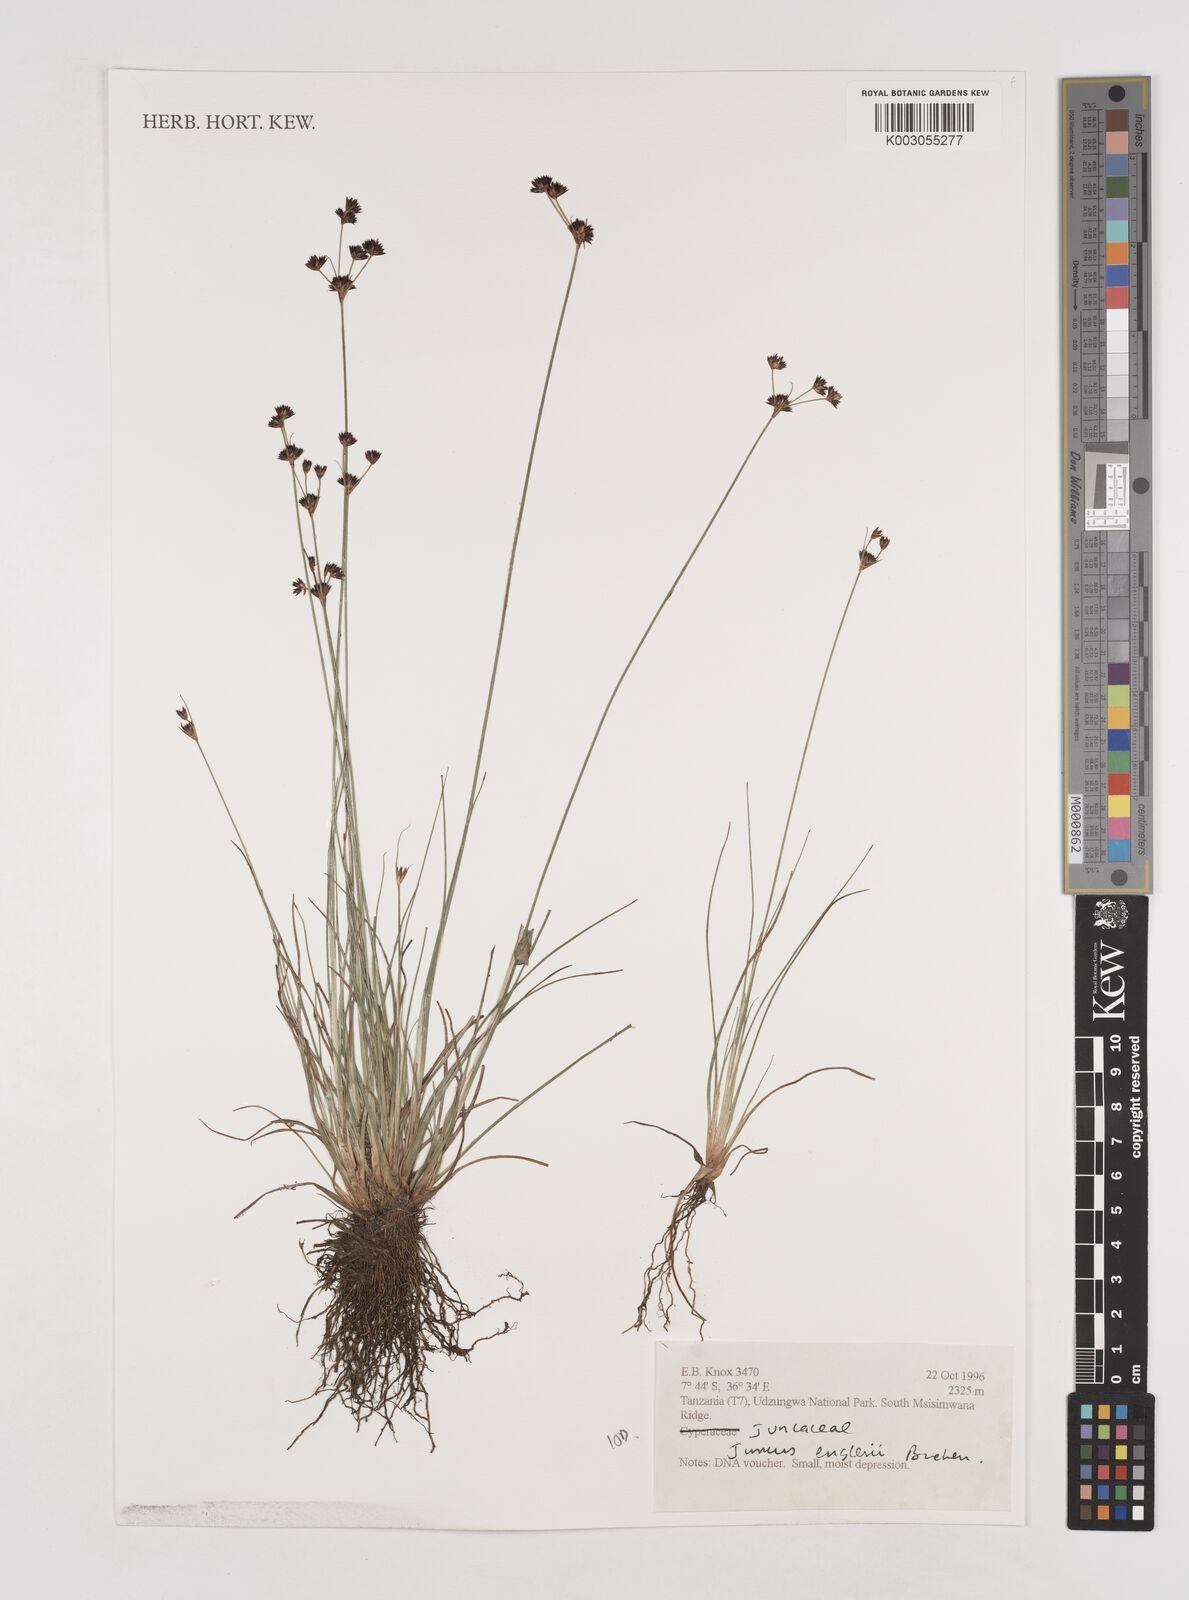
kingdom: Plantae
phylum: Tracheophyta
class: Liliopsida
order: Poales
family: Juncaceae
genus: Juncus
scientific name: Juncus engleri
